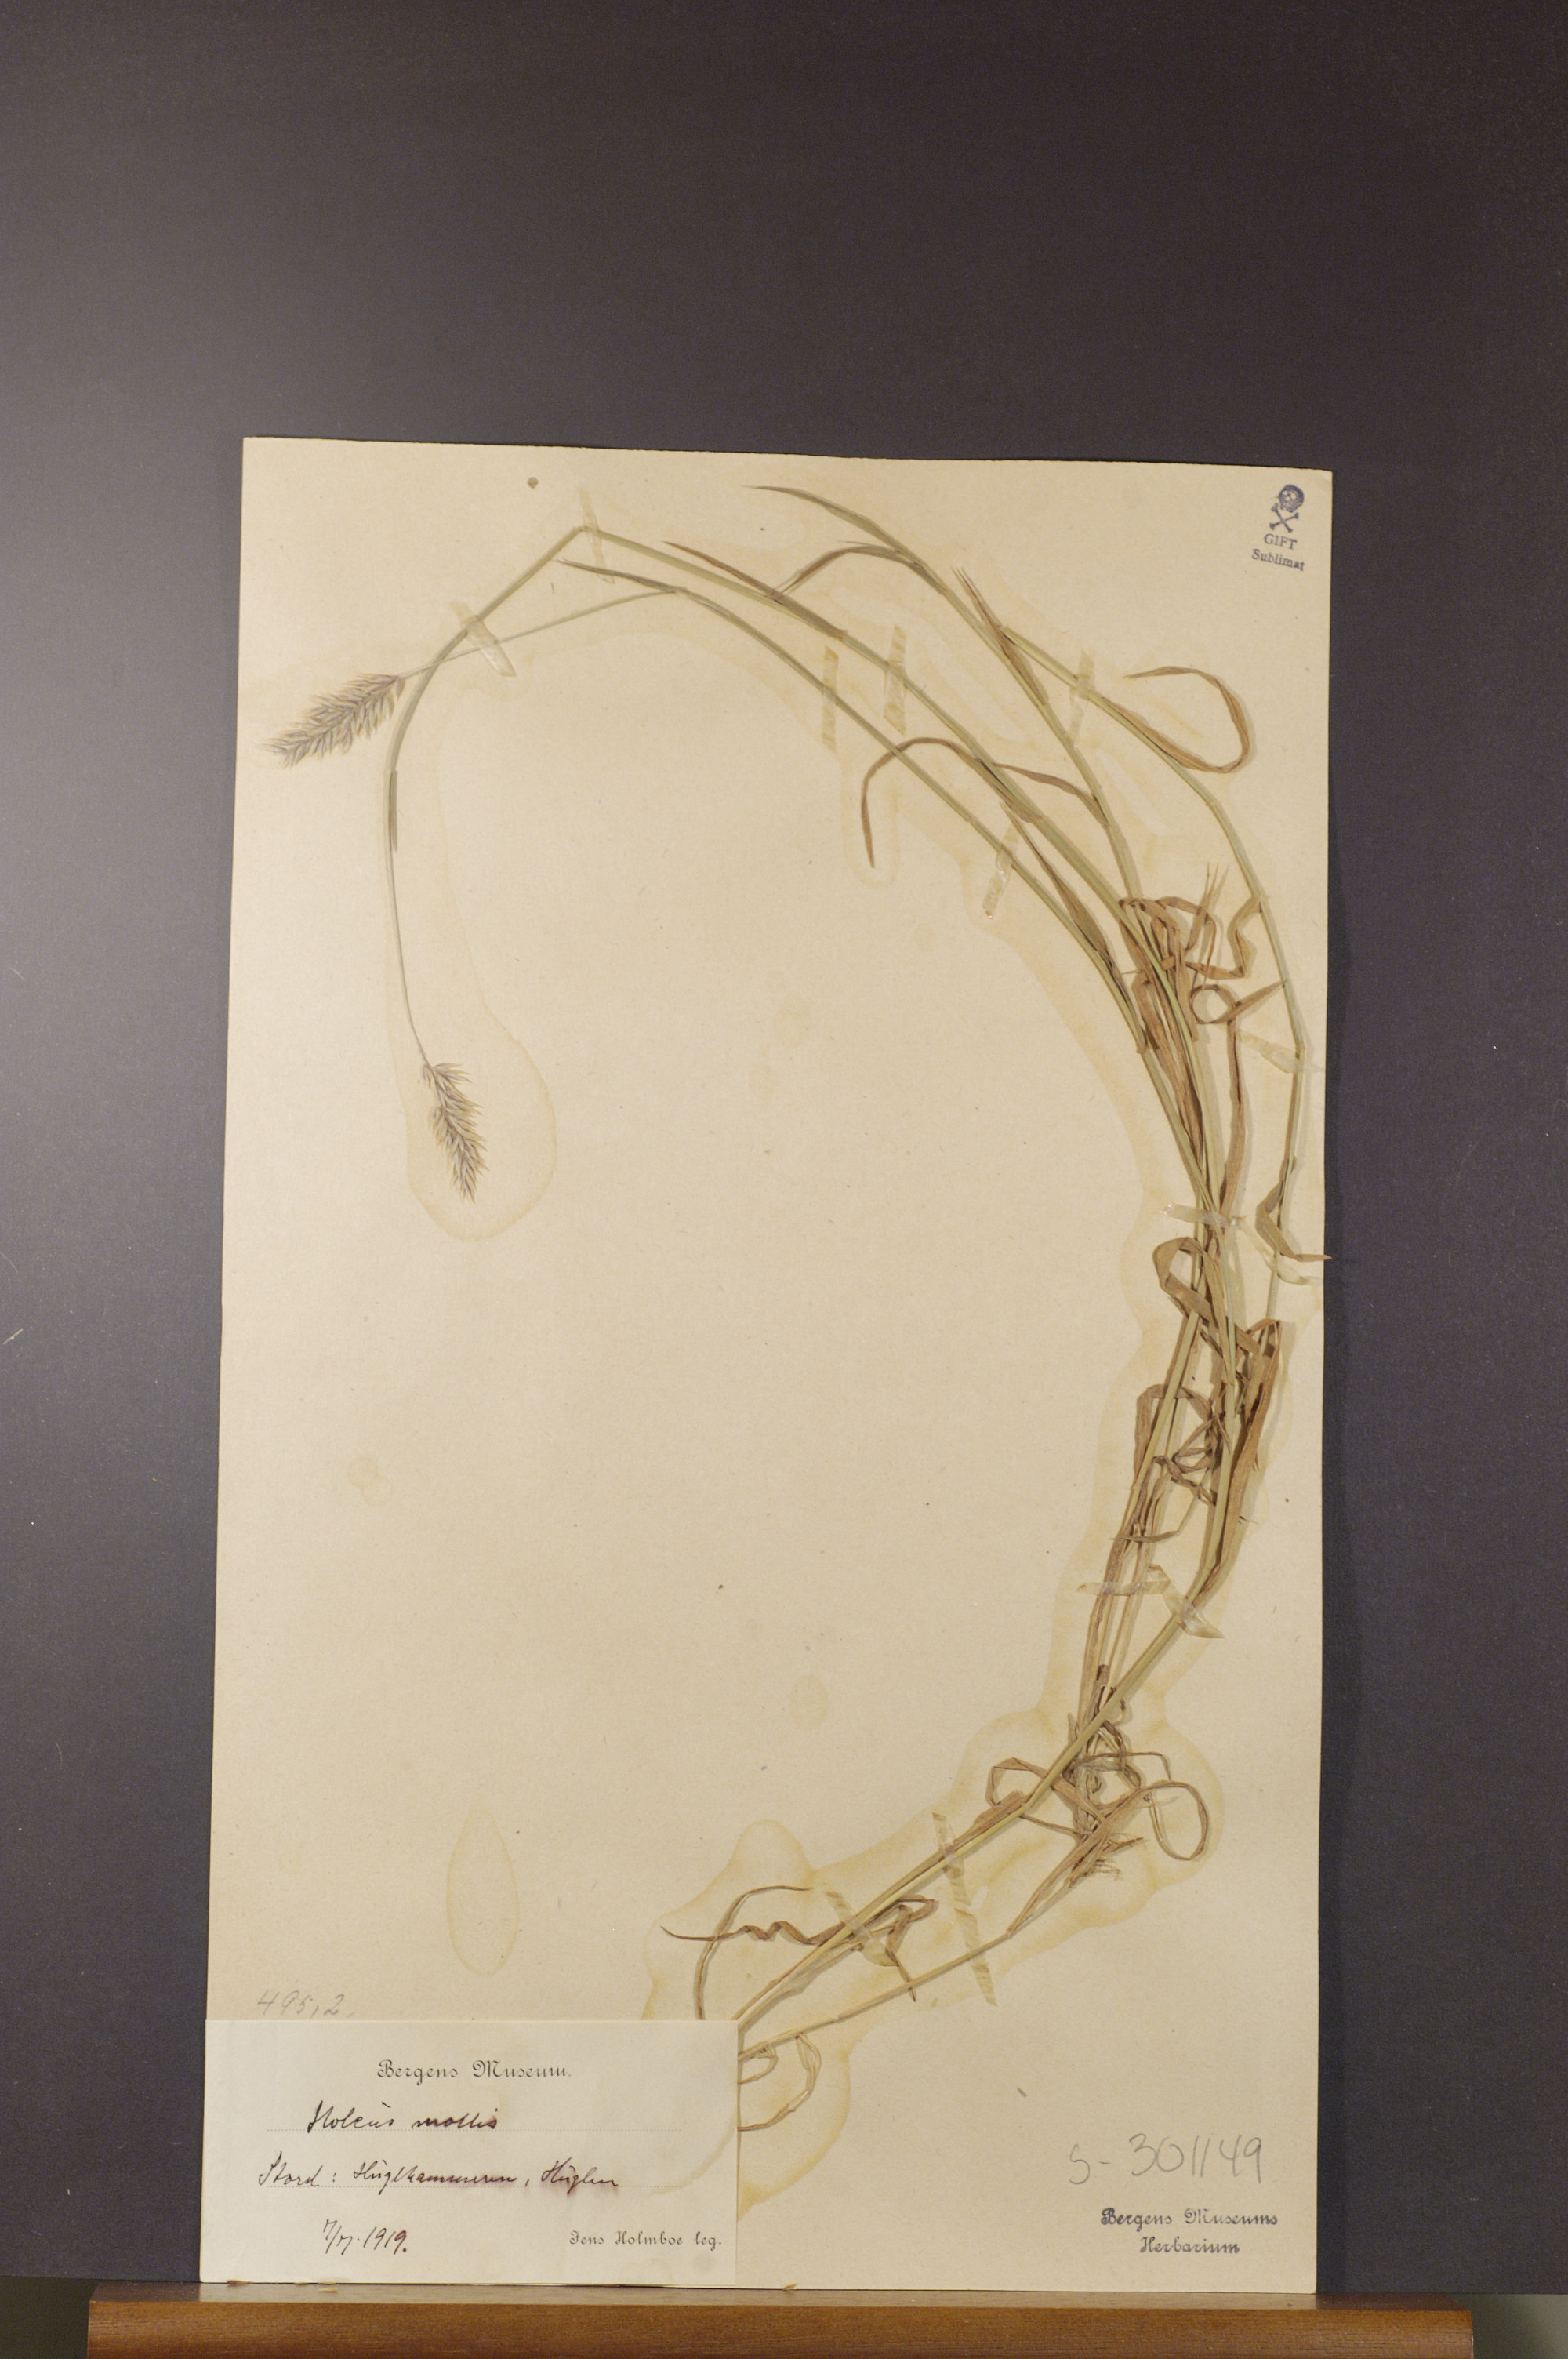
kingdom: Plantae
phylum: Tracheophyta
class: Liliopsida
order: Poales
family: Poaceae
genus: Holcus
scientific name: Holcus mollis
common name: Creeping velvetgrass
